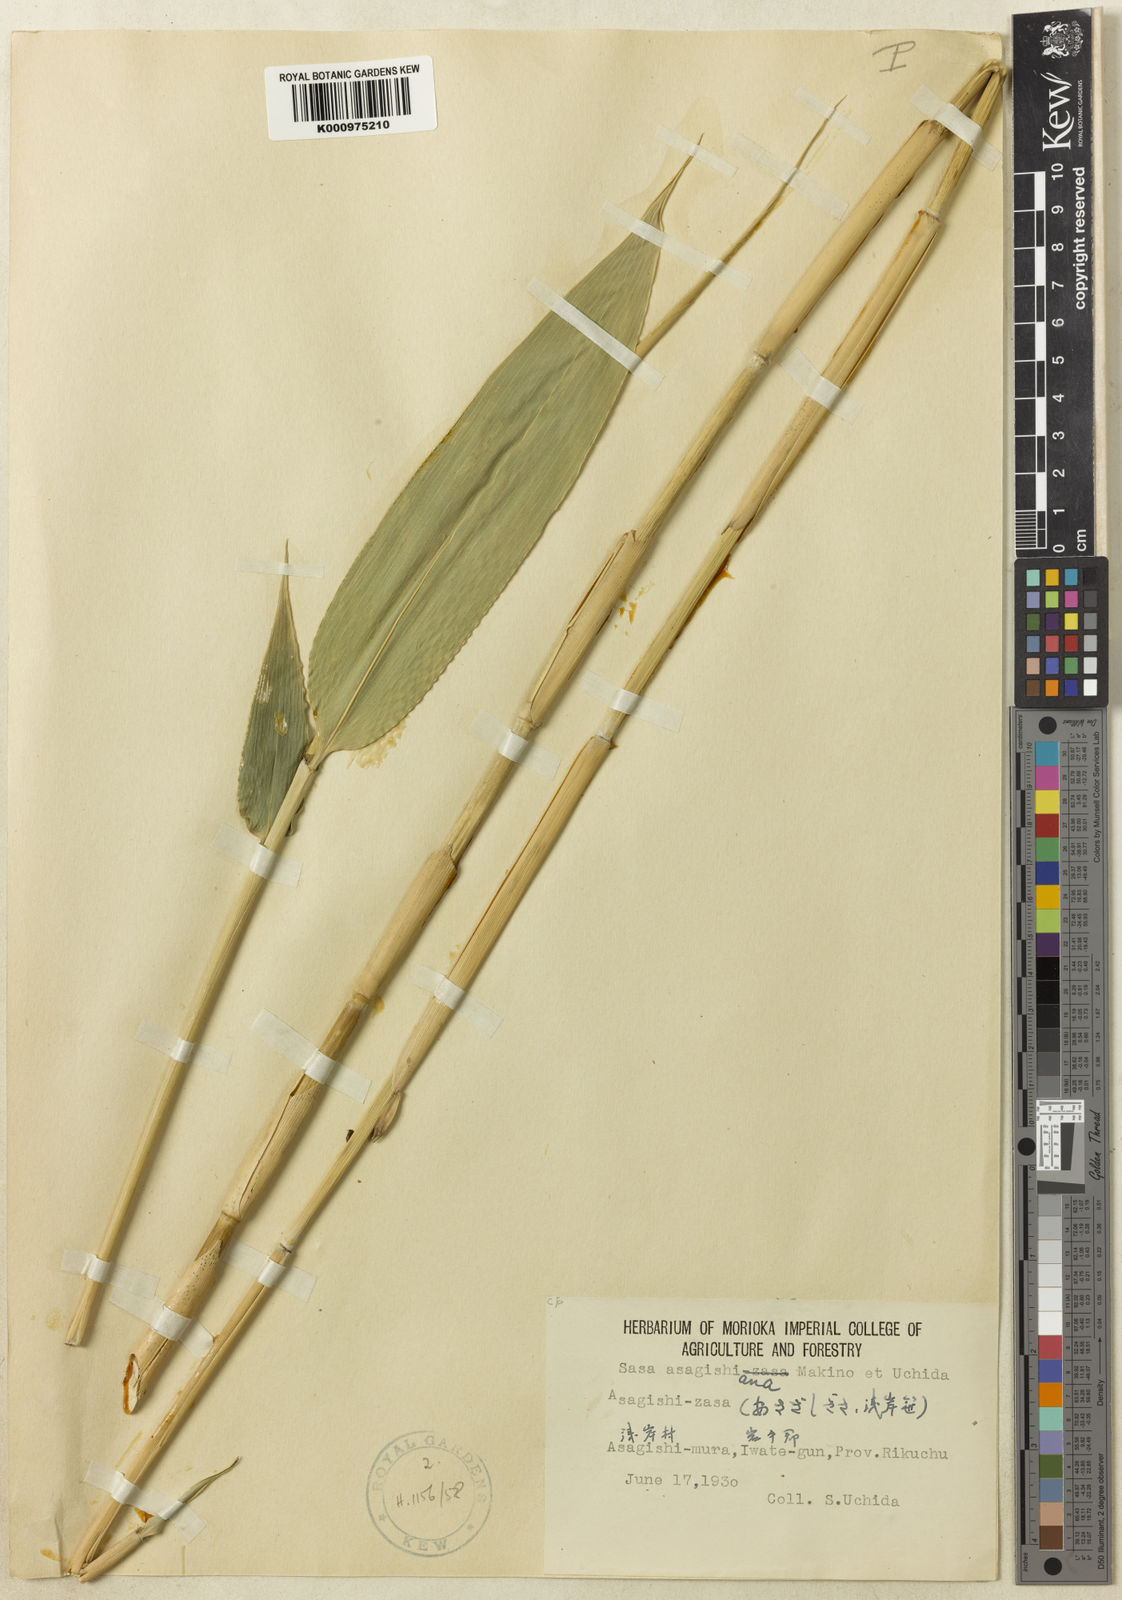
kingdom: Plantae
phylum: Tracheophyta
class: Liliopsida
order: Poales
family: Poaceae
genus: Sasa
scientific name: Sasa shimidzuana
